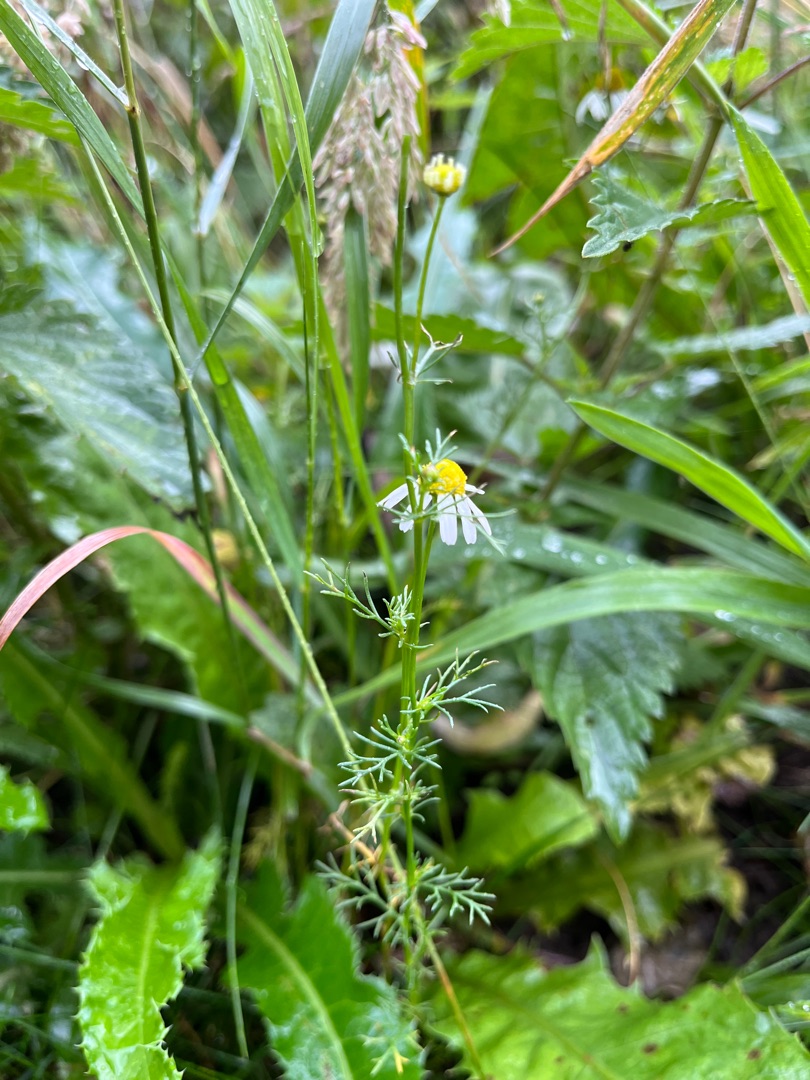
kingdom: Plantae
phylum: Tracheophyta
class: Magnoliopsida
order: Asterales
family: Asteraceae
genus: Matricaria
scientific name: Matricaria chamomilla
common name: Vellugtende kamille
